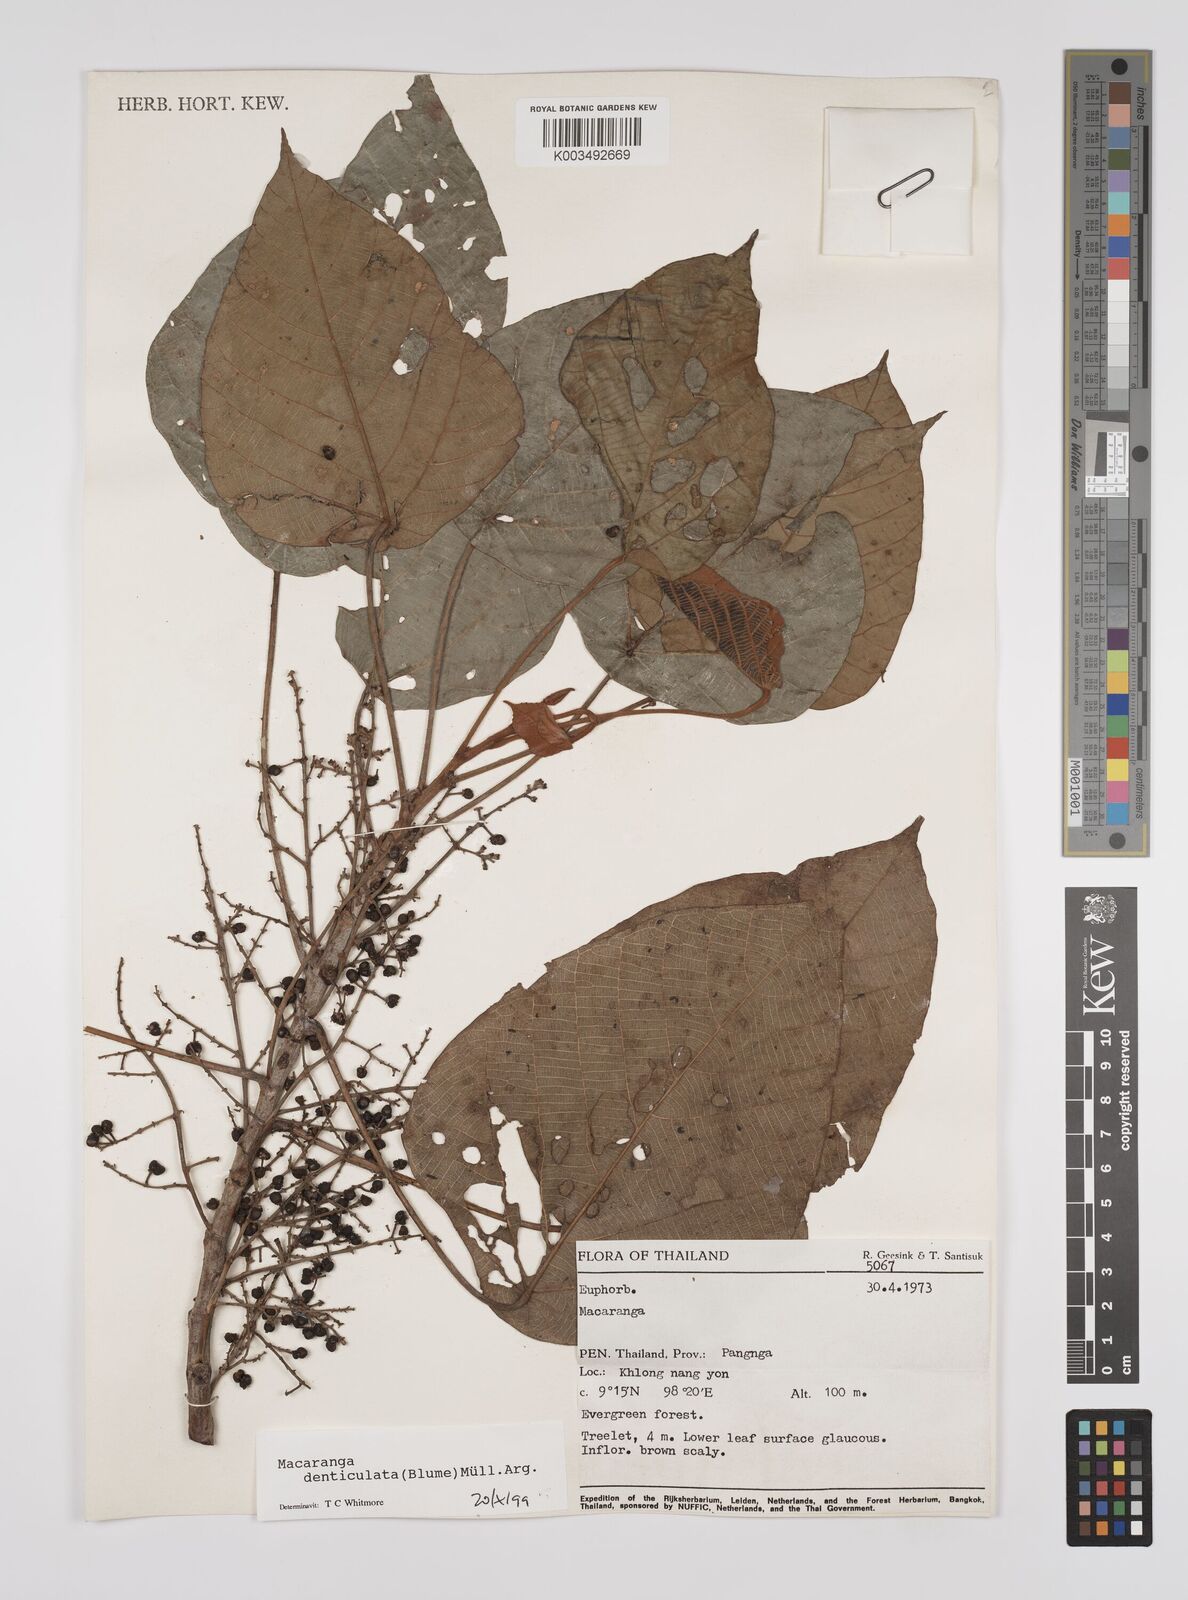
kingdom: Plantae
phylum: Tracheophyta
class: Magnoliopsida
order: Malpighiales
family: Euphorbiaceae
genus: Macaranga
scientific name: Macaranga denticulata
